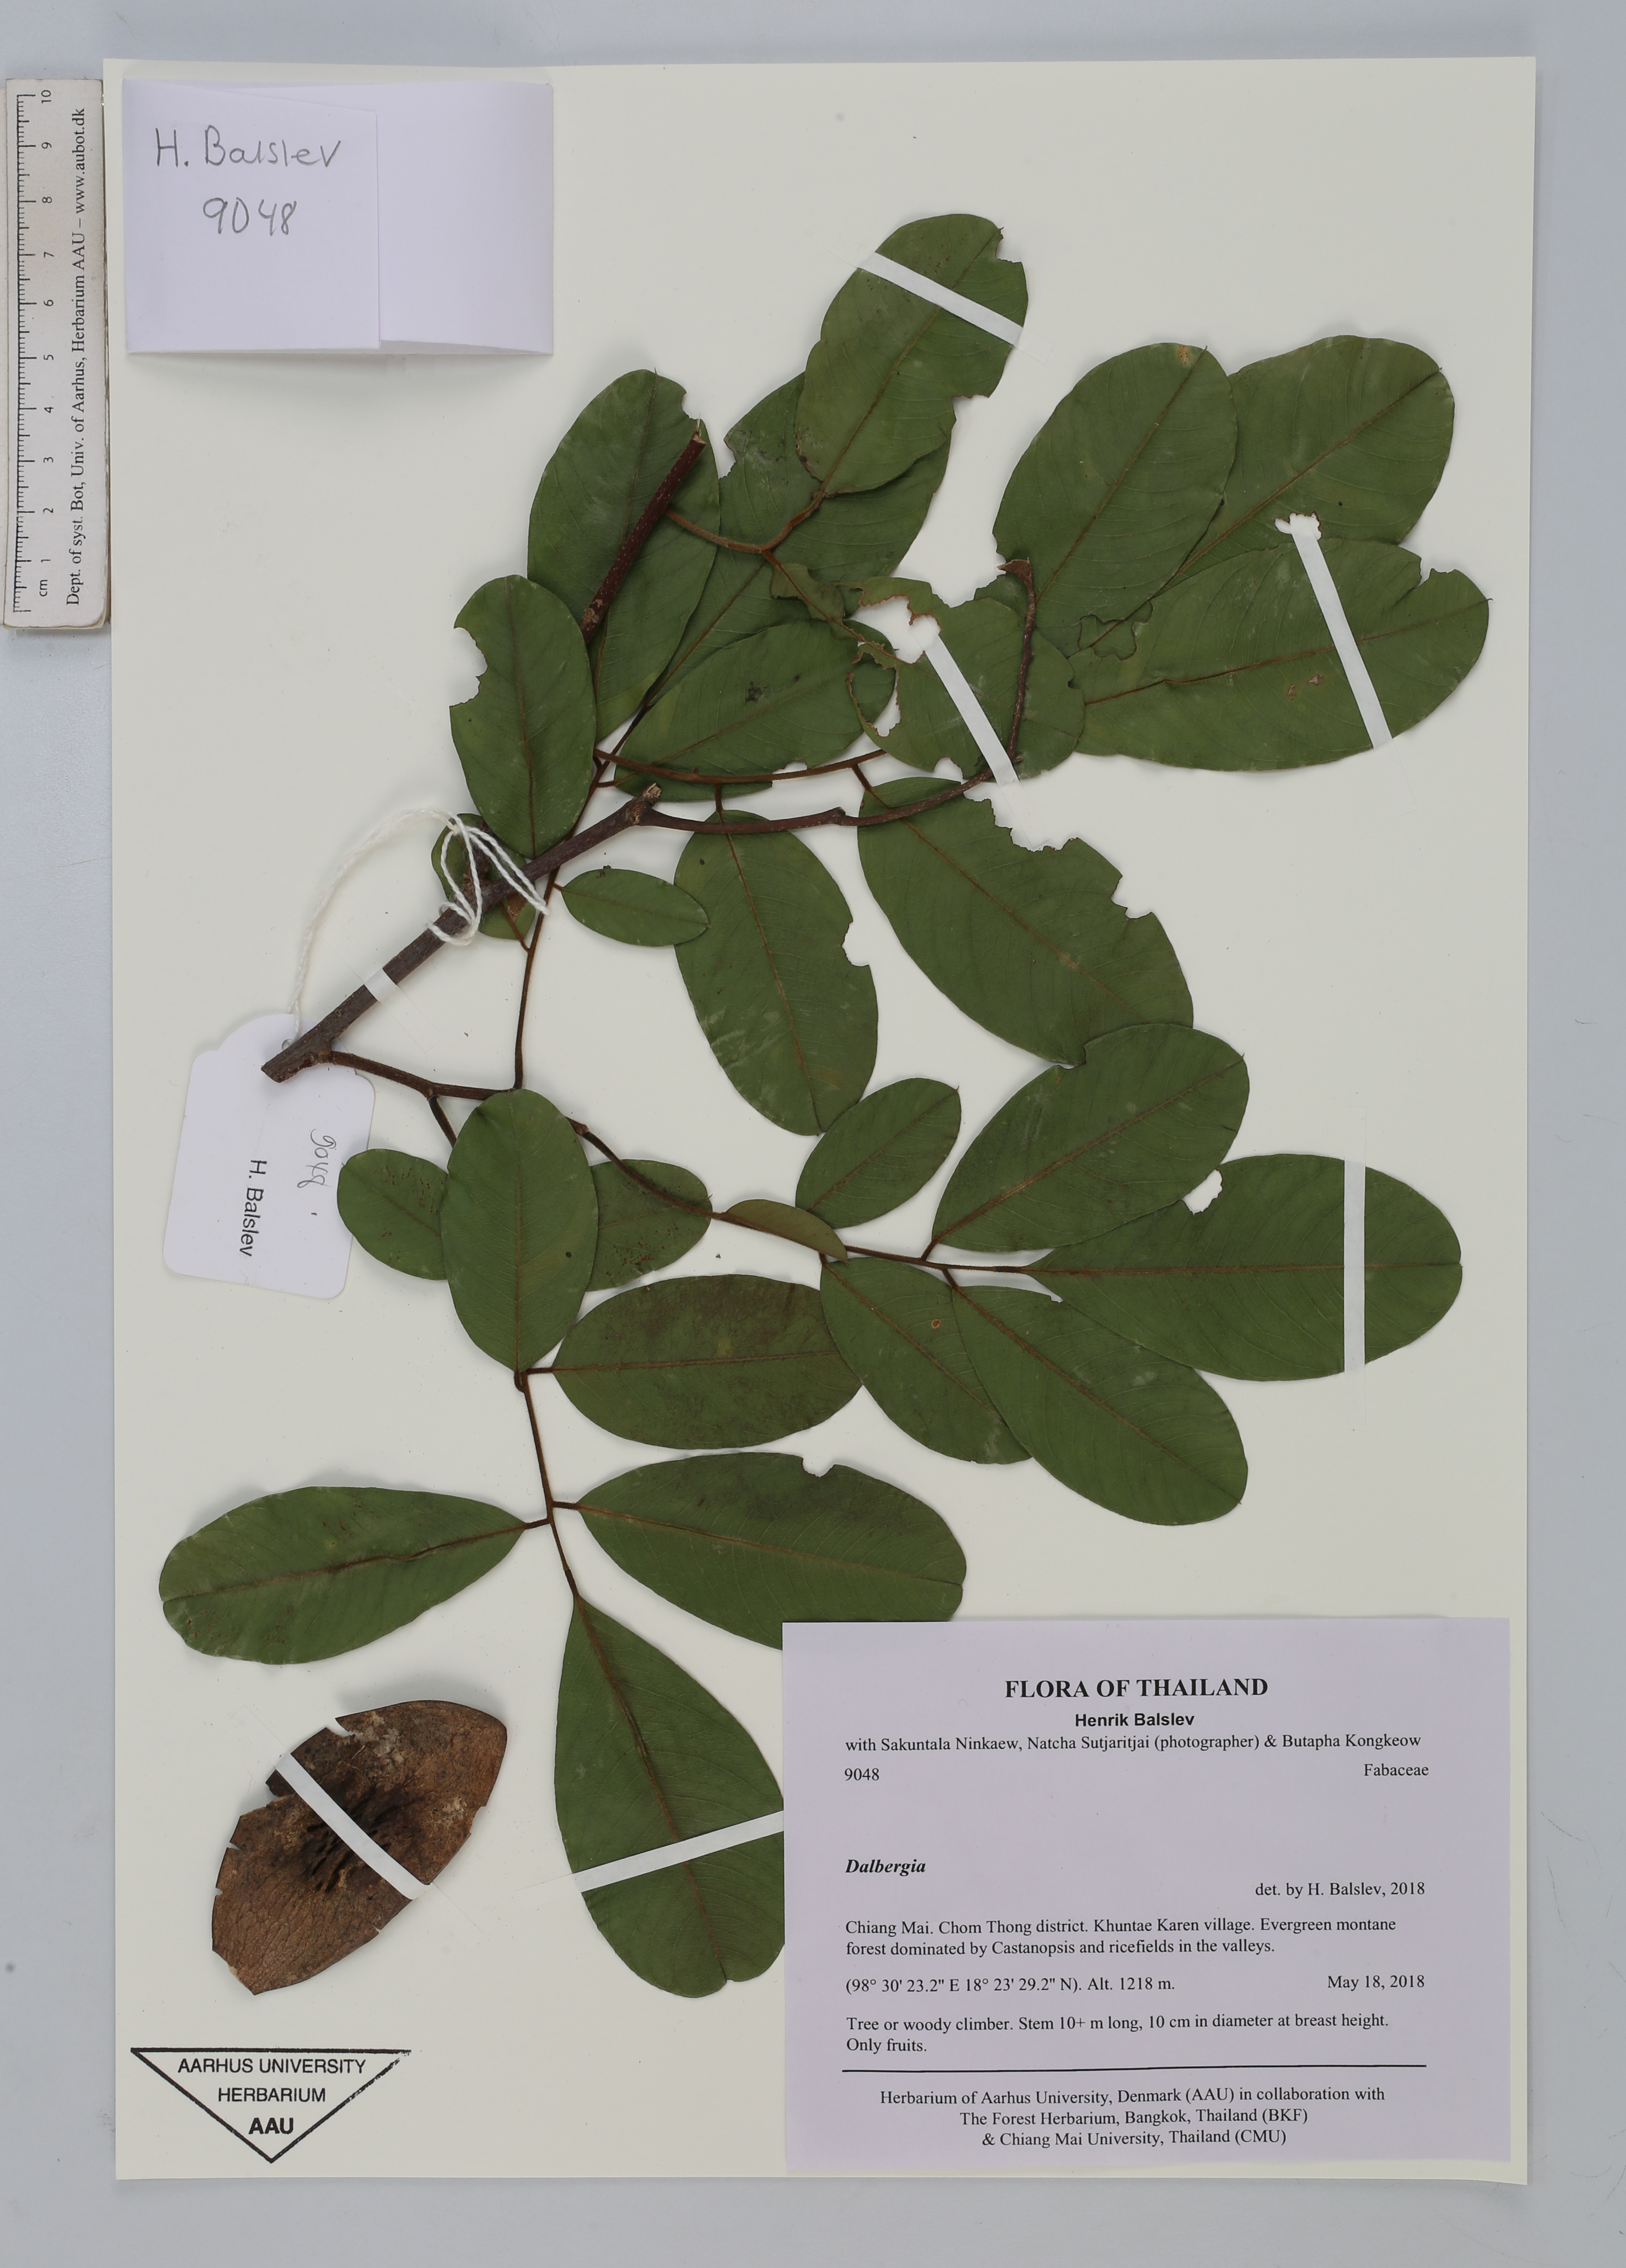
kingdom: Plantae
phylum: Tracheophyta
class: Magnoliopsida
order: Fabales
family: Fabaceae
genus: Dalbergia
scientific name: Dalbergia
